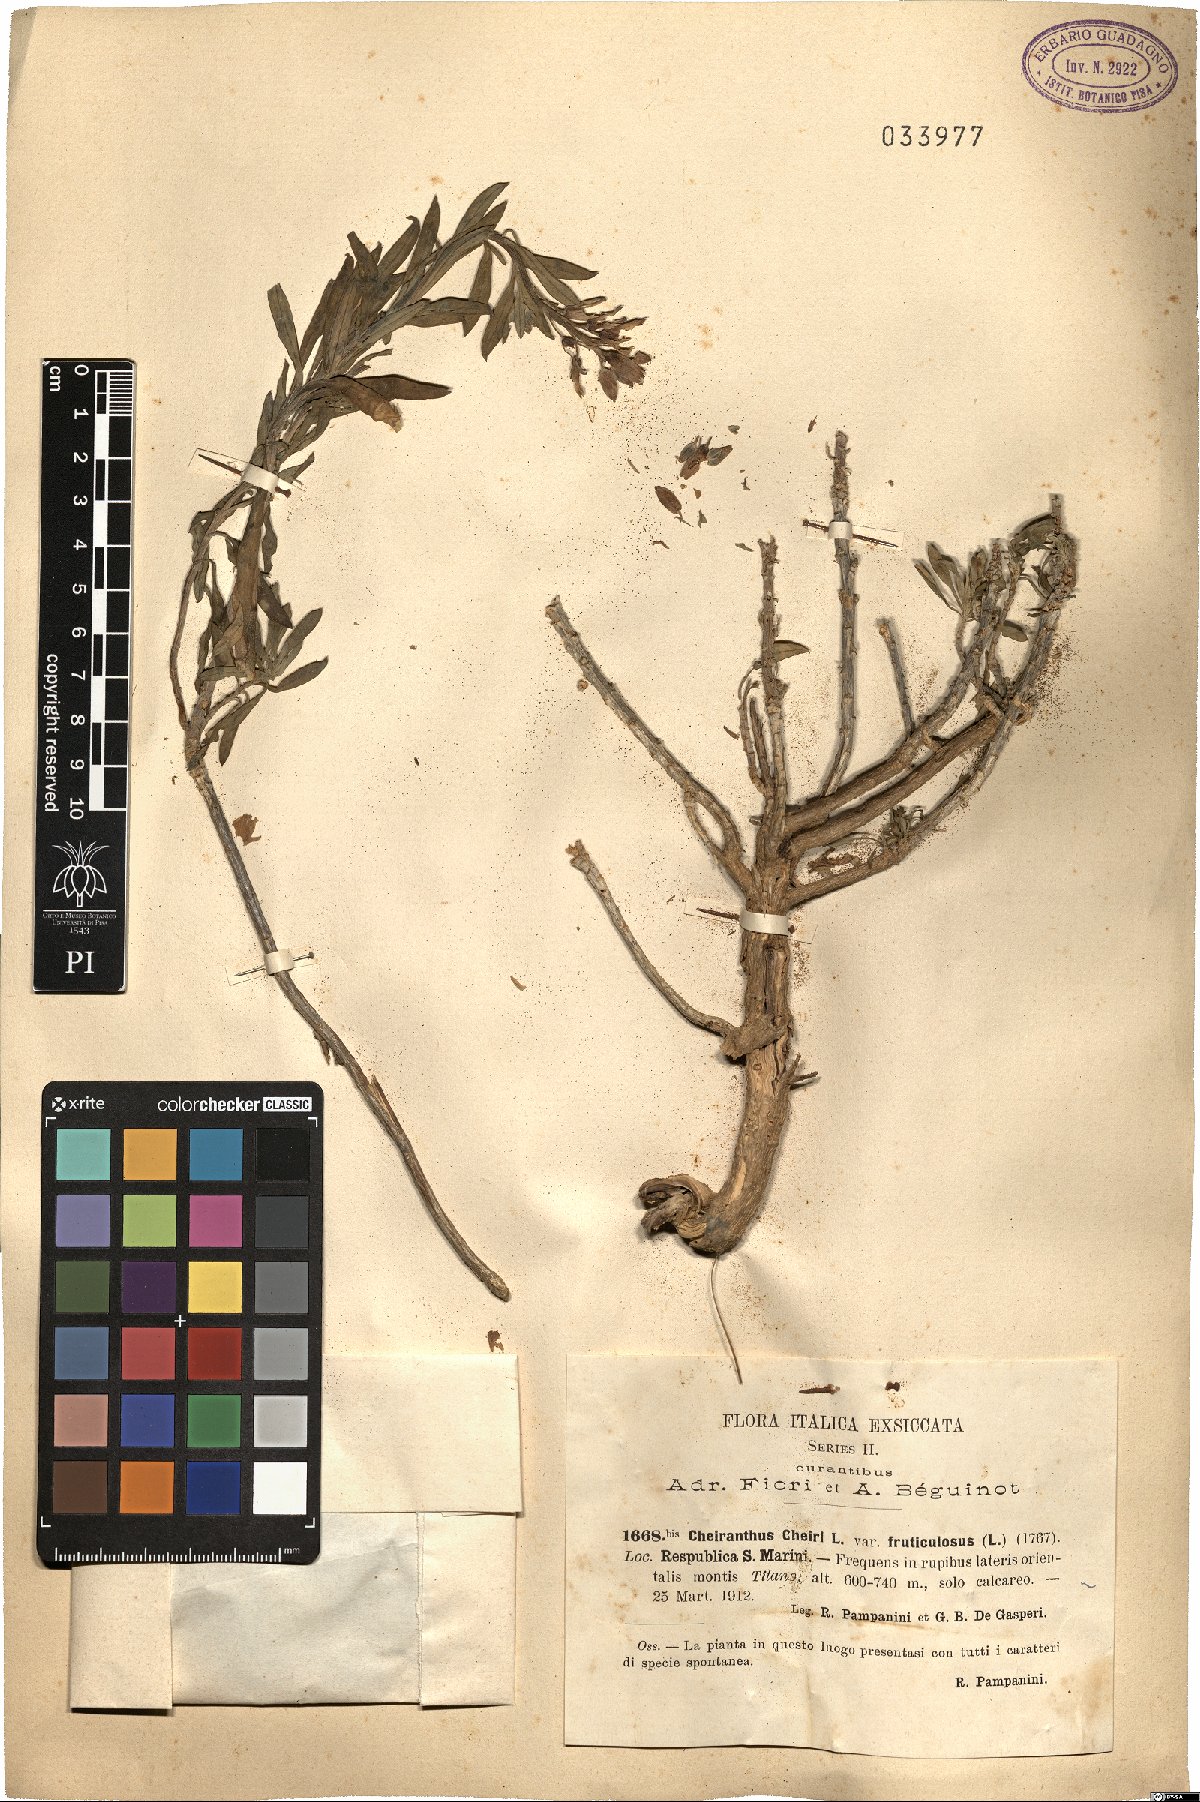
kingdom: Plantae
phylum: Tracheophyta
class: Magnoliopsida
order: Brassicales
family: Brassicaceae
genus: Erysimum
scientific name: Erysimum cheiri
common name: Wallflower
